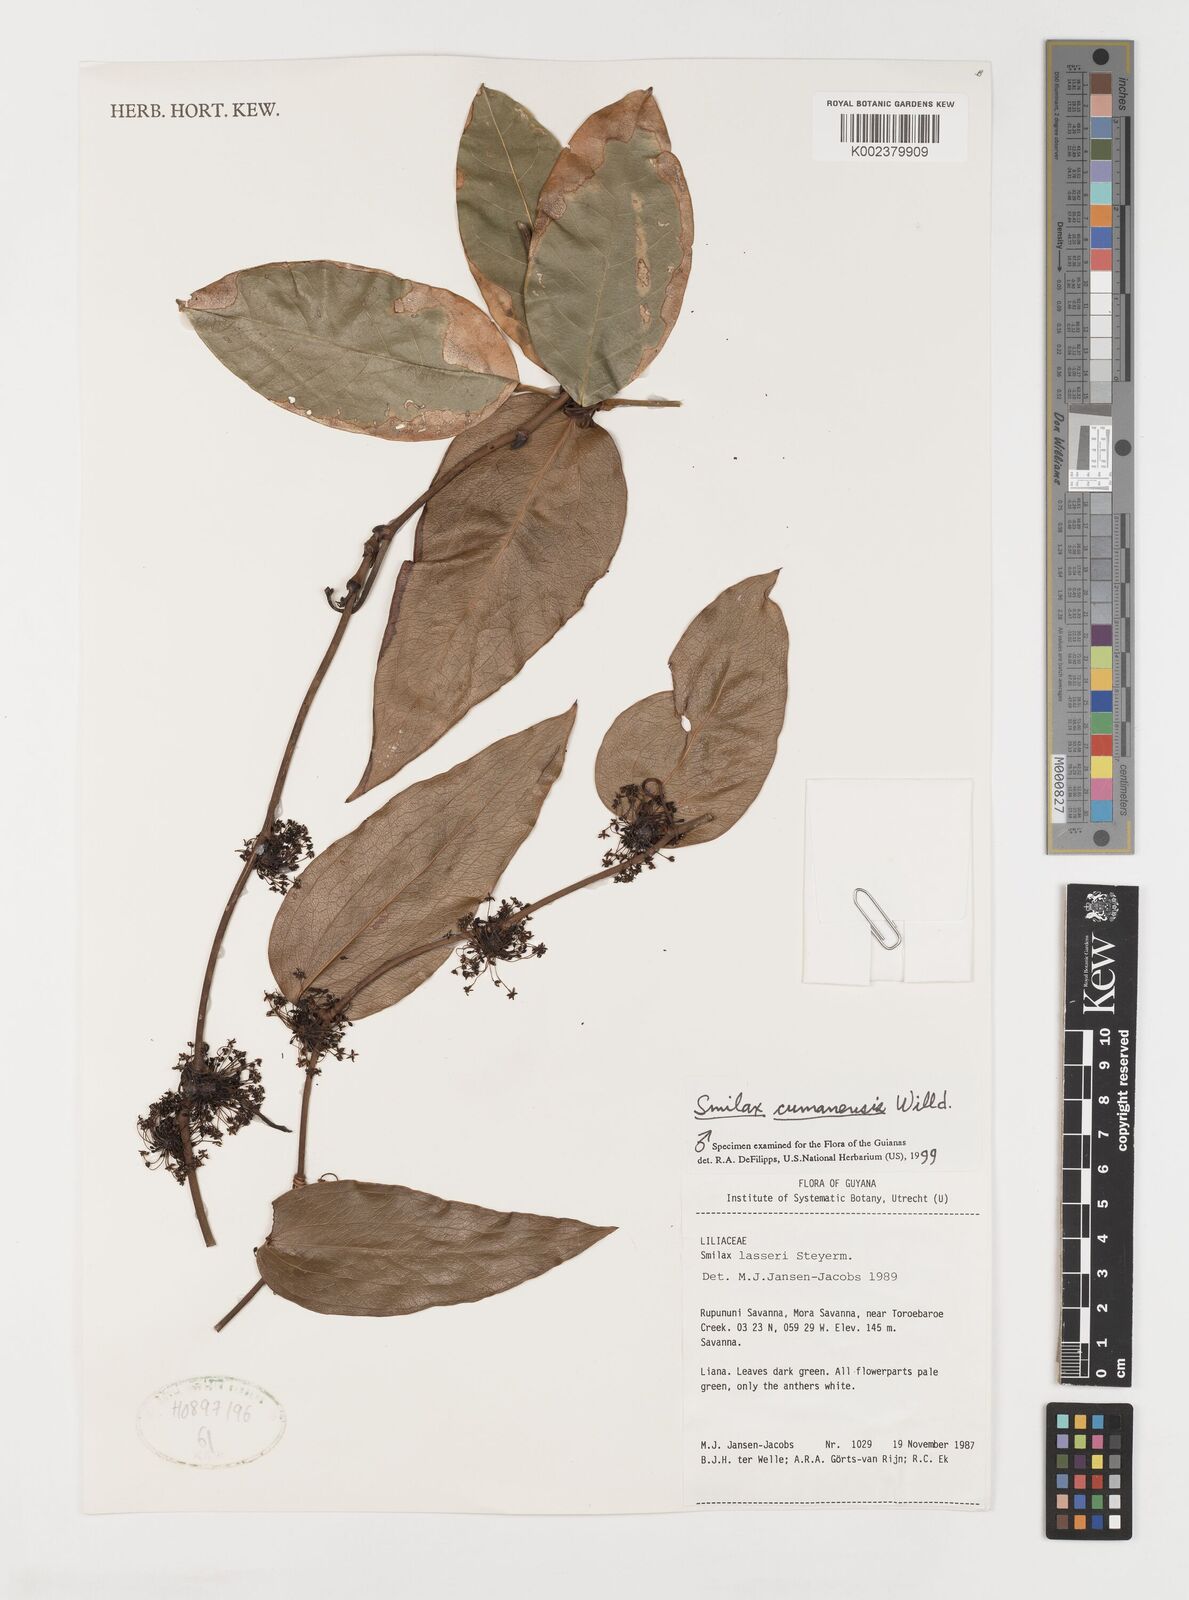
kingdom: Plantae
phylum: Tracheophyta
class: Liliopsida
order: Liliales
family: Smilacaceae
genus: Smilax
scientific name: Smilax oblongata
